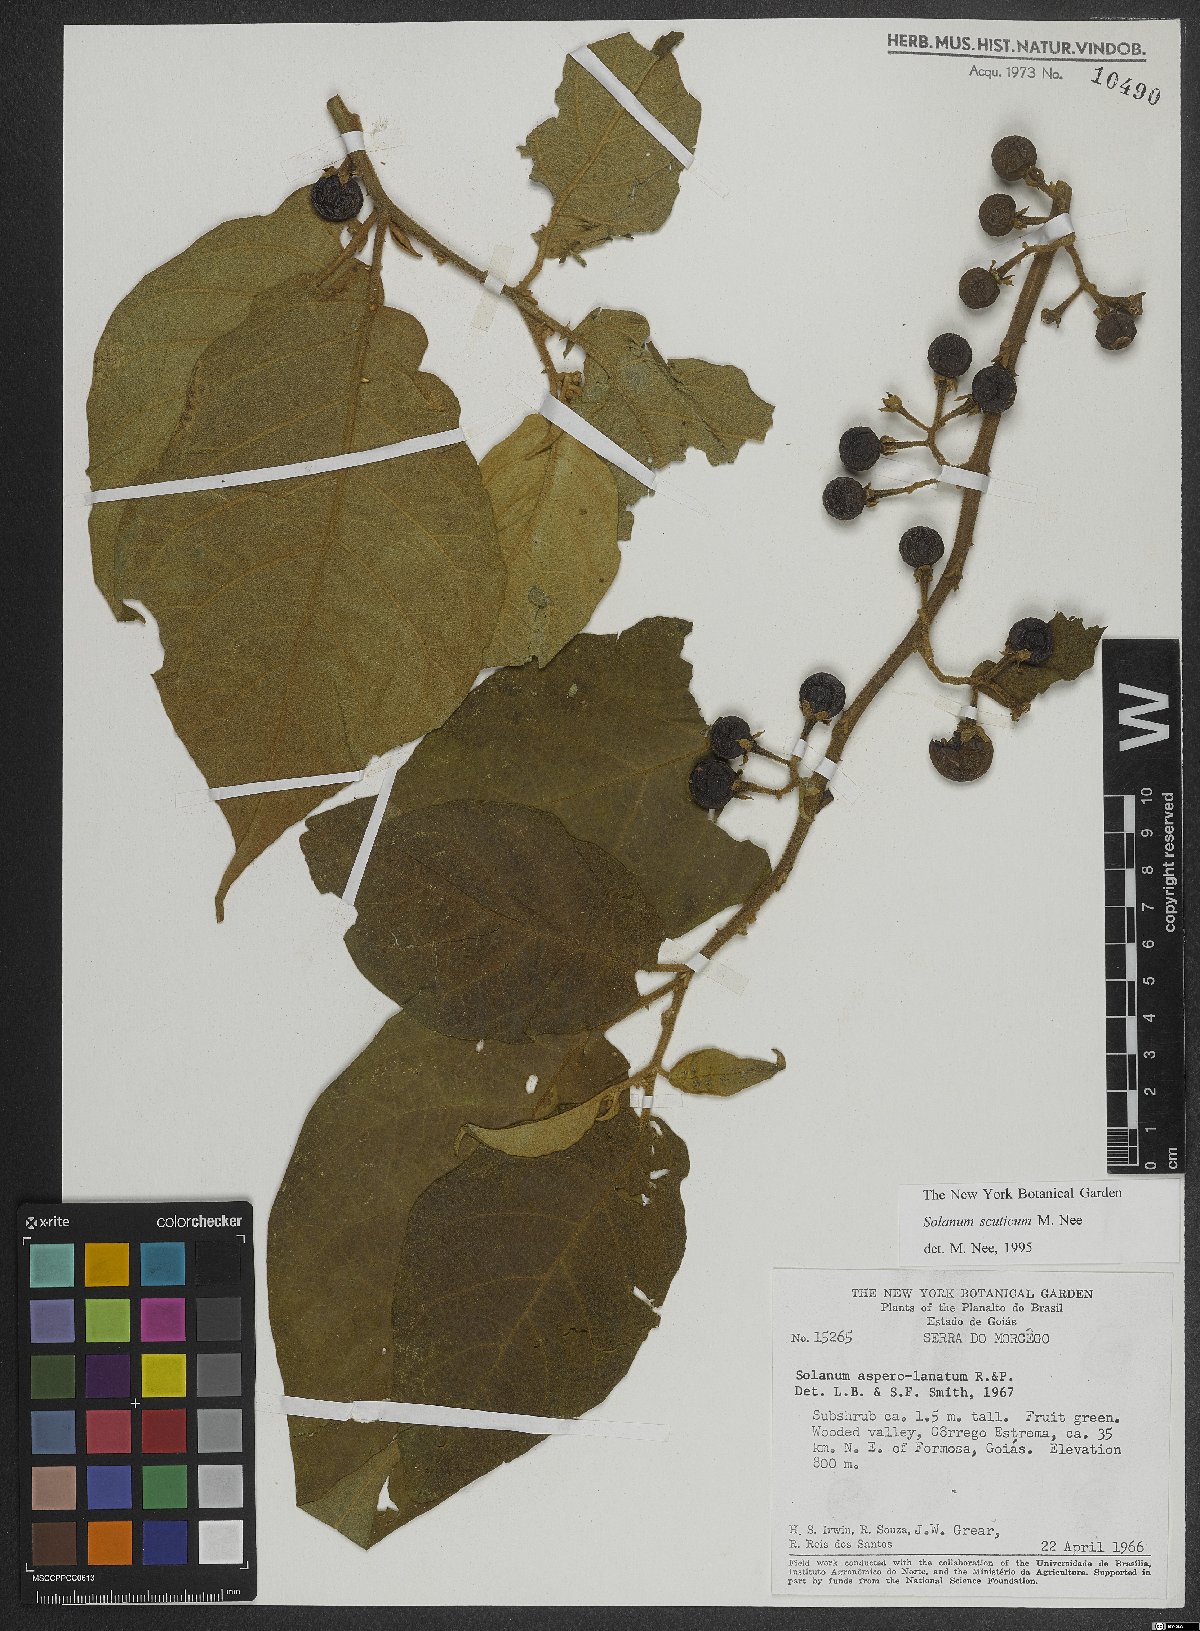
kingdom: Plantae
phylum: Tracheophyta
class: Magnoliopsida
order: Solanales
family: Solanaceae
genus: Solanum
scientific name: Solanum scuticum
